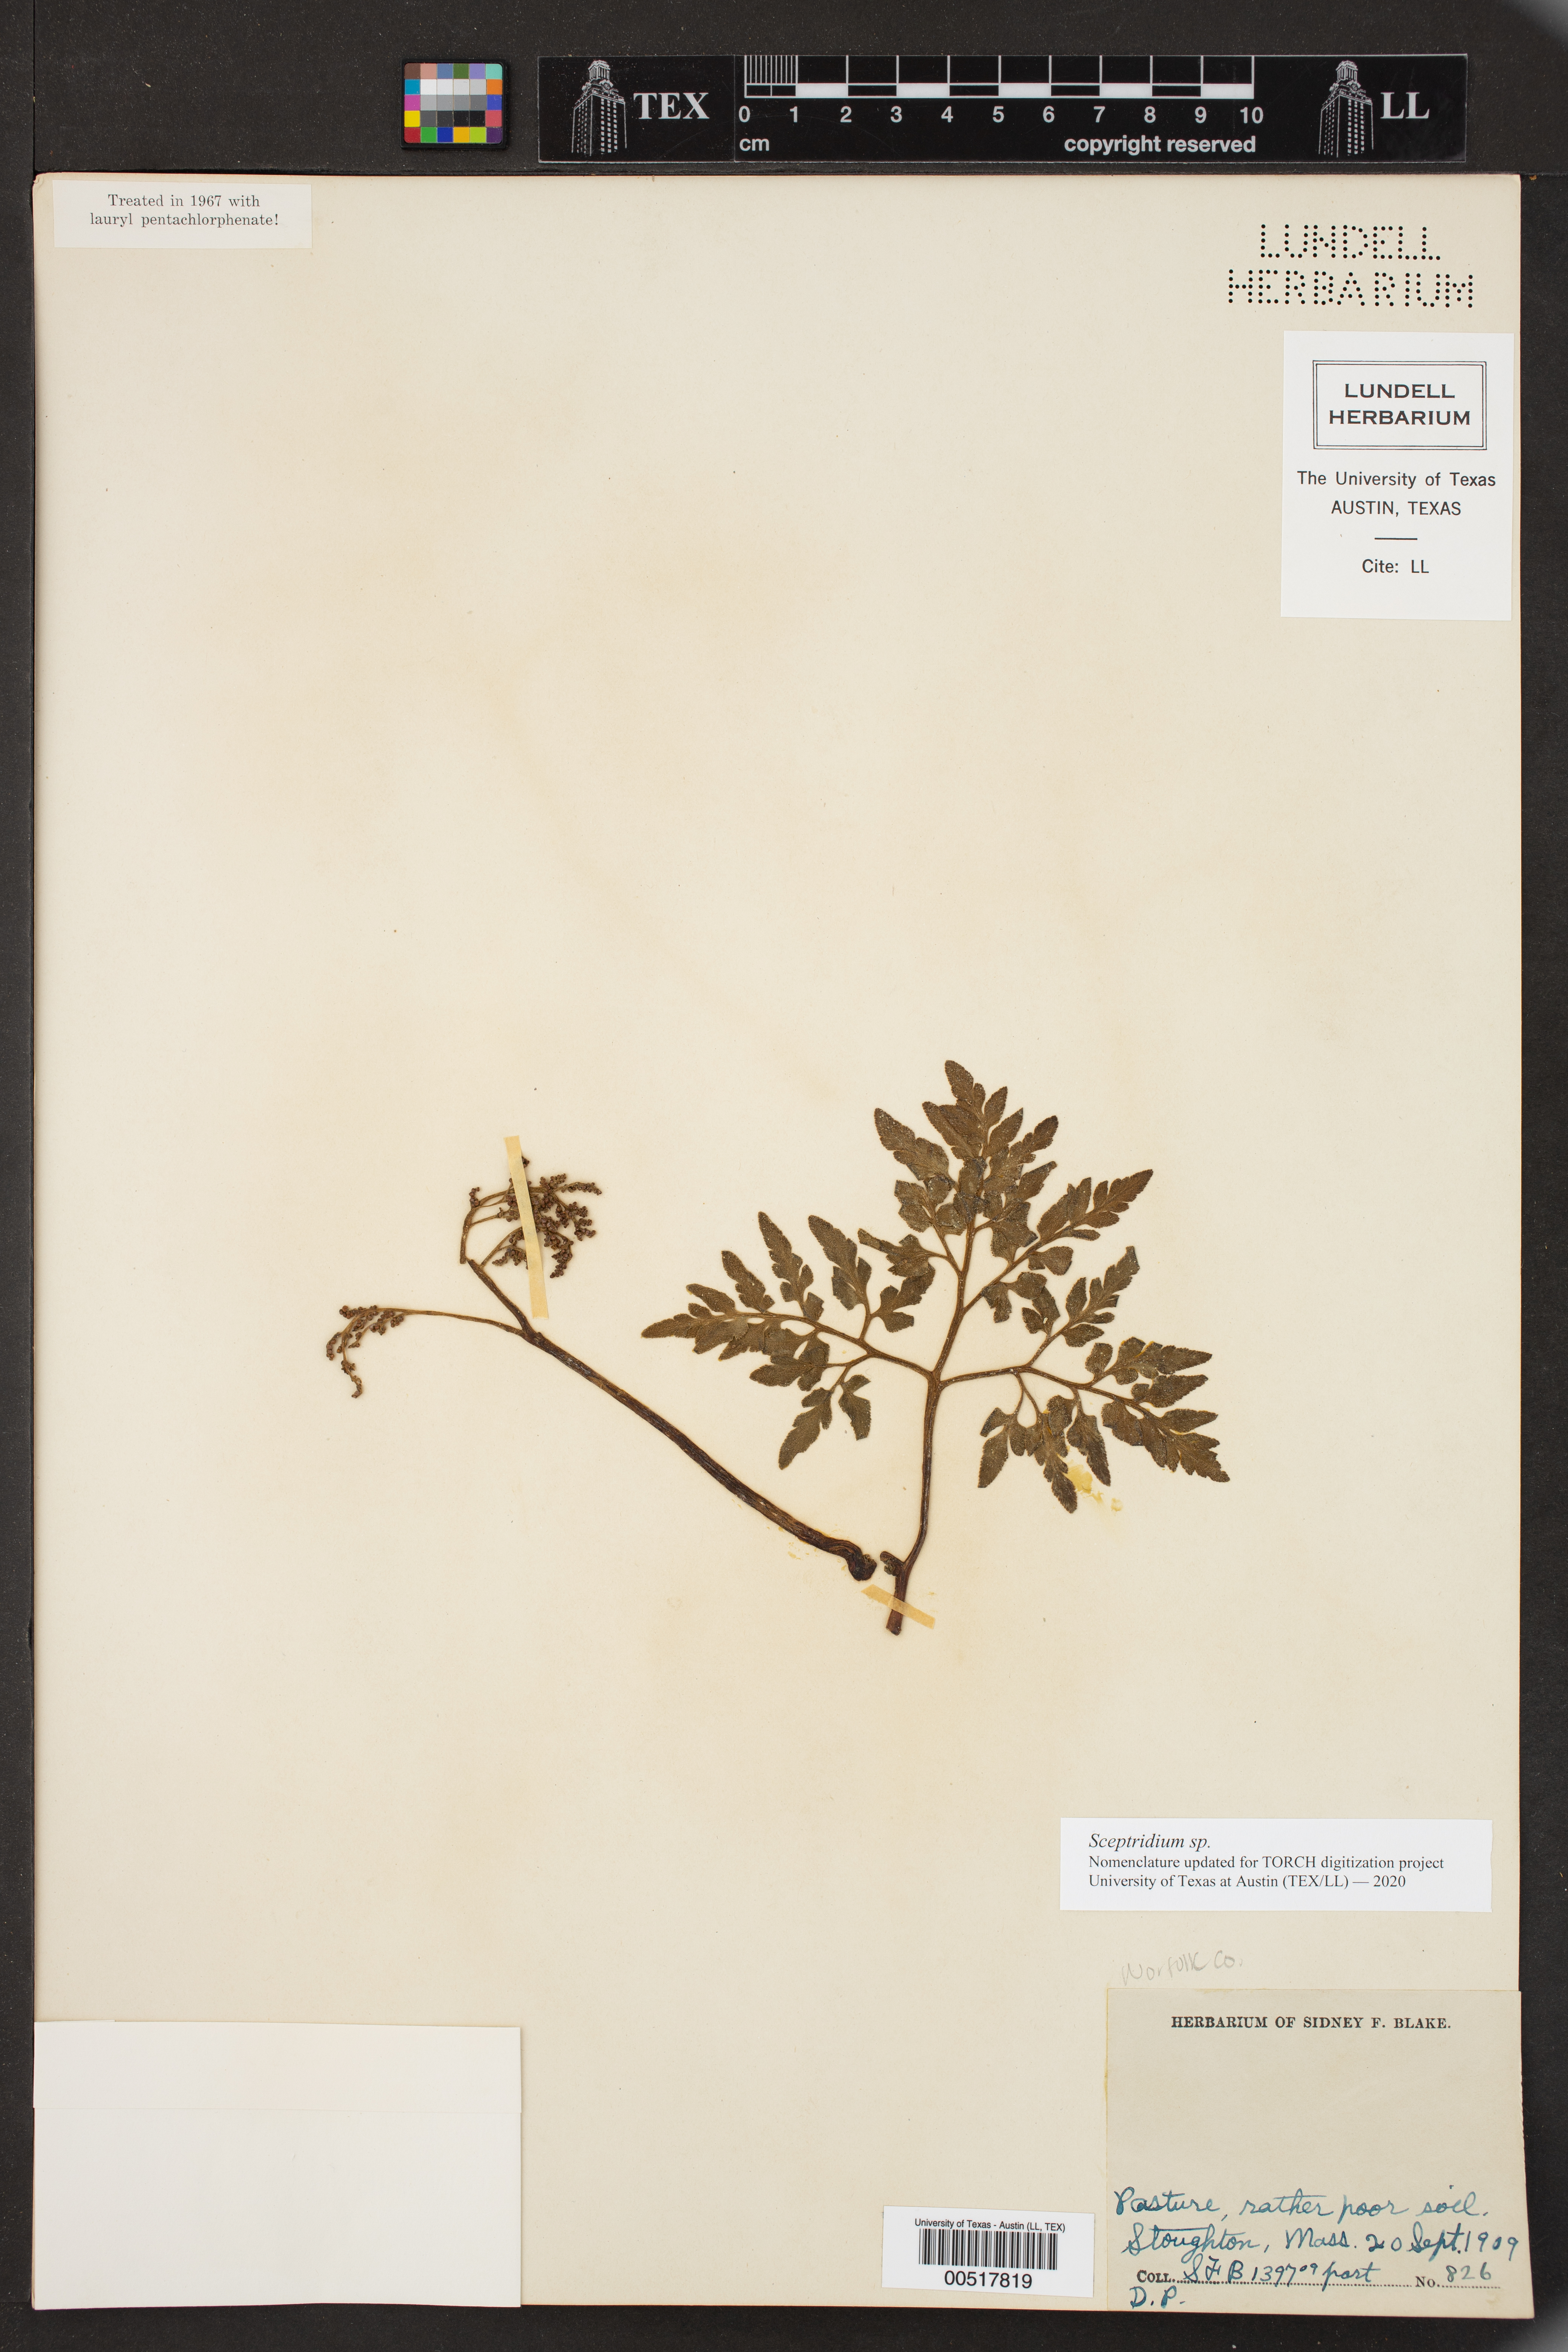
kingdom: Plantae
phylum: Tracheophyta
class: Polypodiopsida
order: Ophioglossales
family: Ophioglossaceae
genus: Sceptridium
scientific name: Sceptridium
